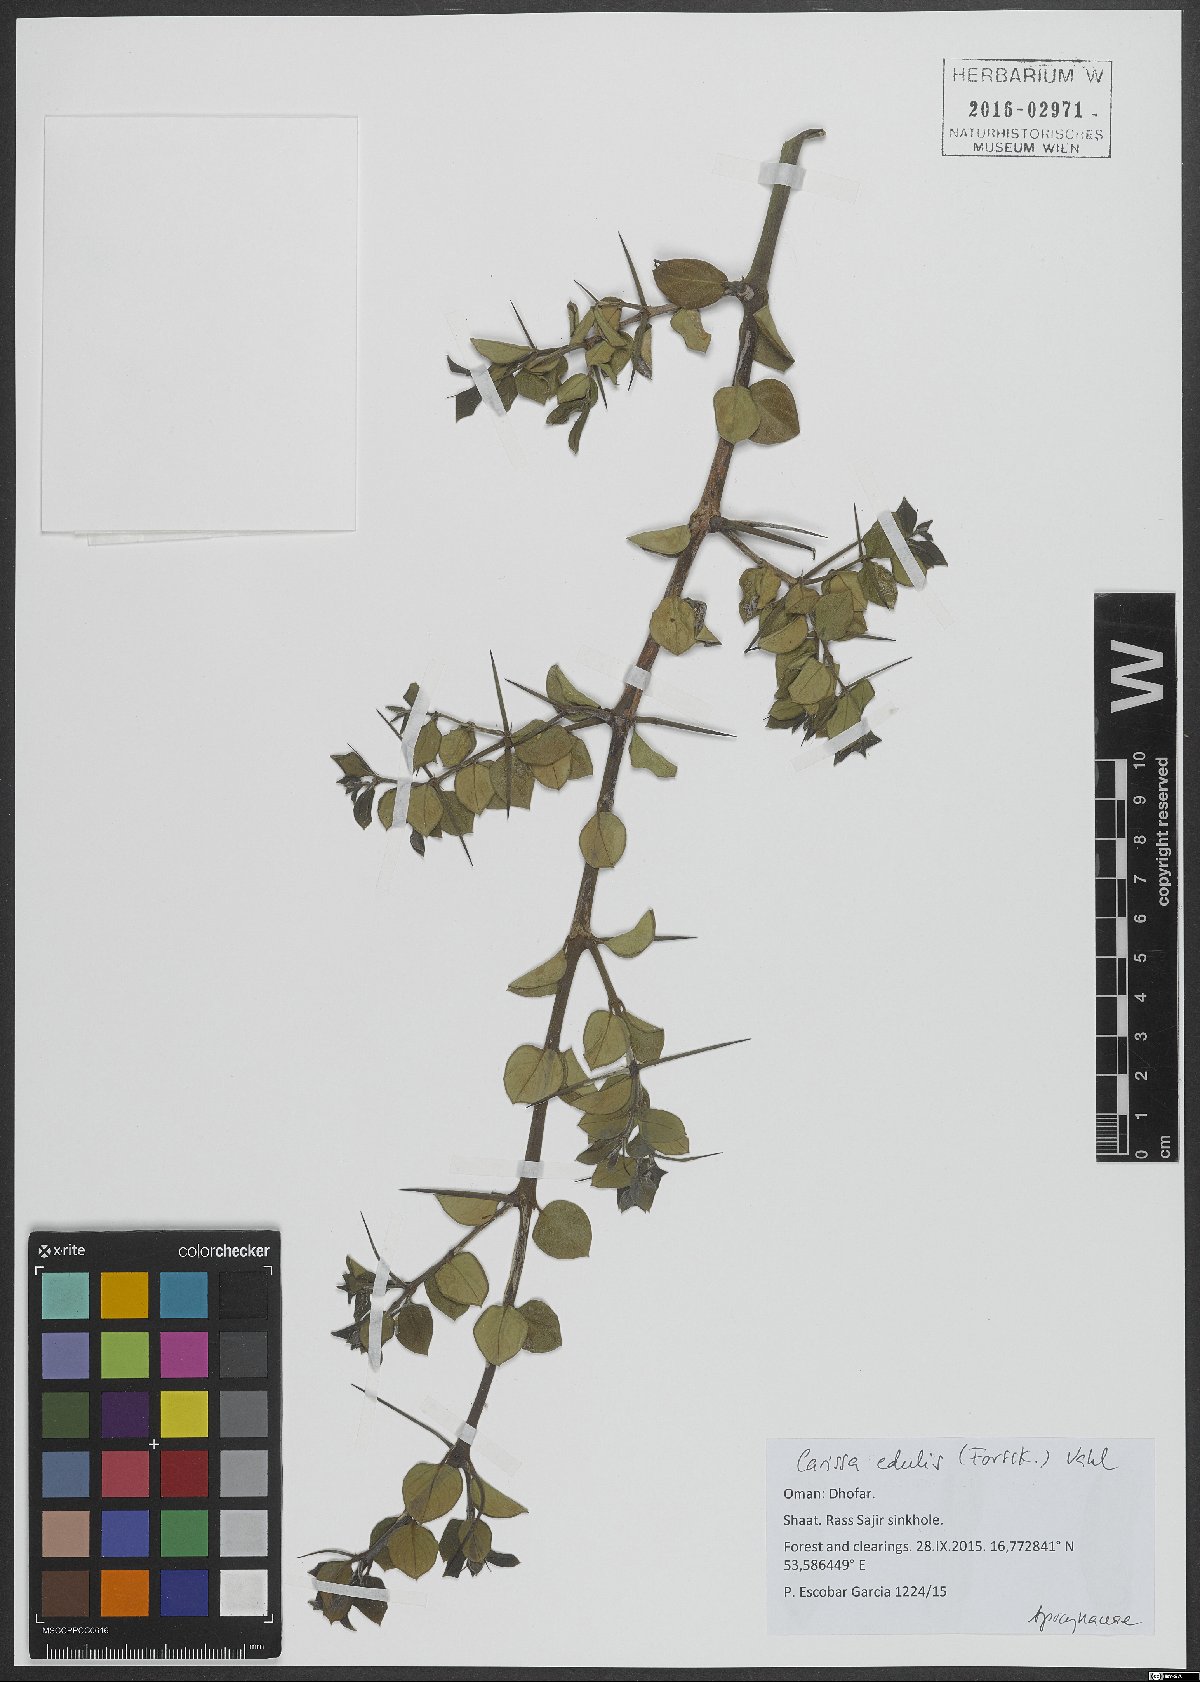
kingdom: Plantae
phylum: Tracheophyta
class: Magnoliopsida
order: Gentianales
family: Apocynaceae
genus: Carissa
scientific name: Carissa spinarum
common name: Egyptian carissa
